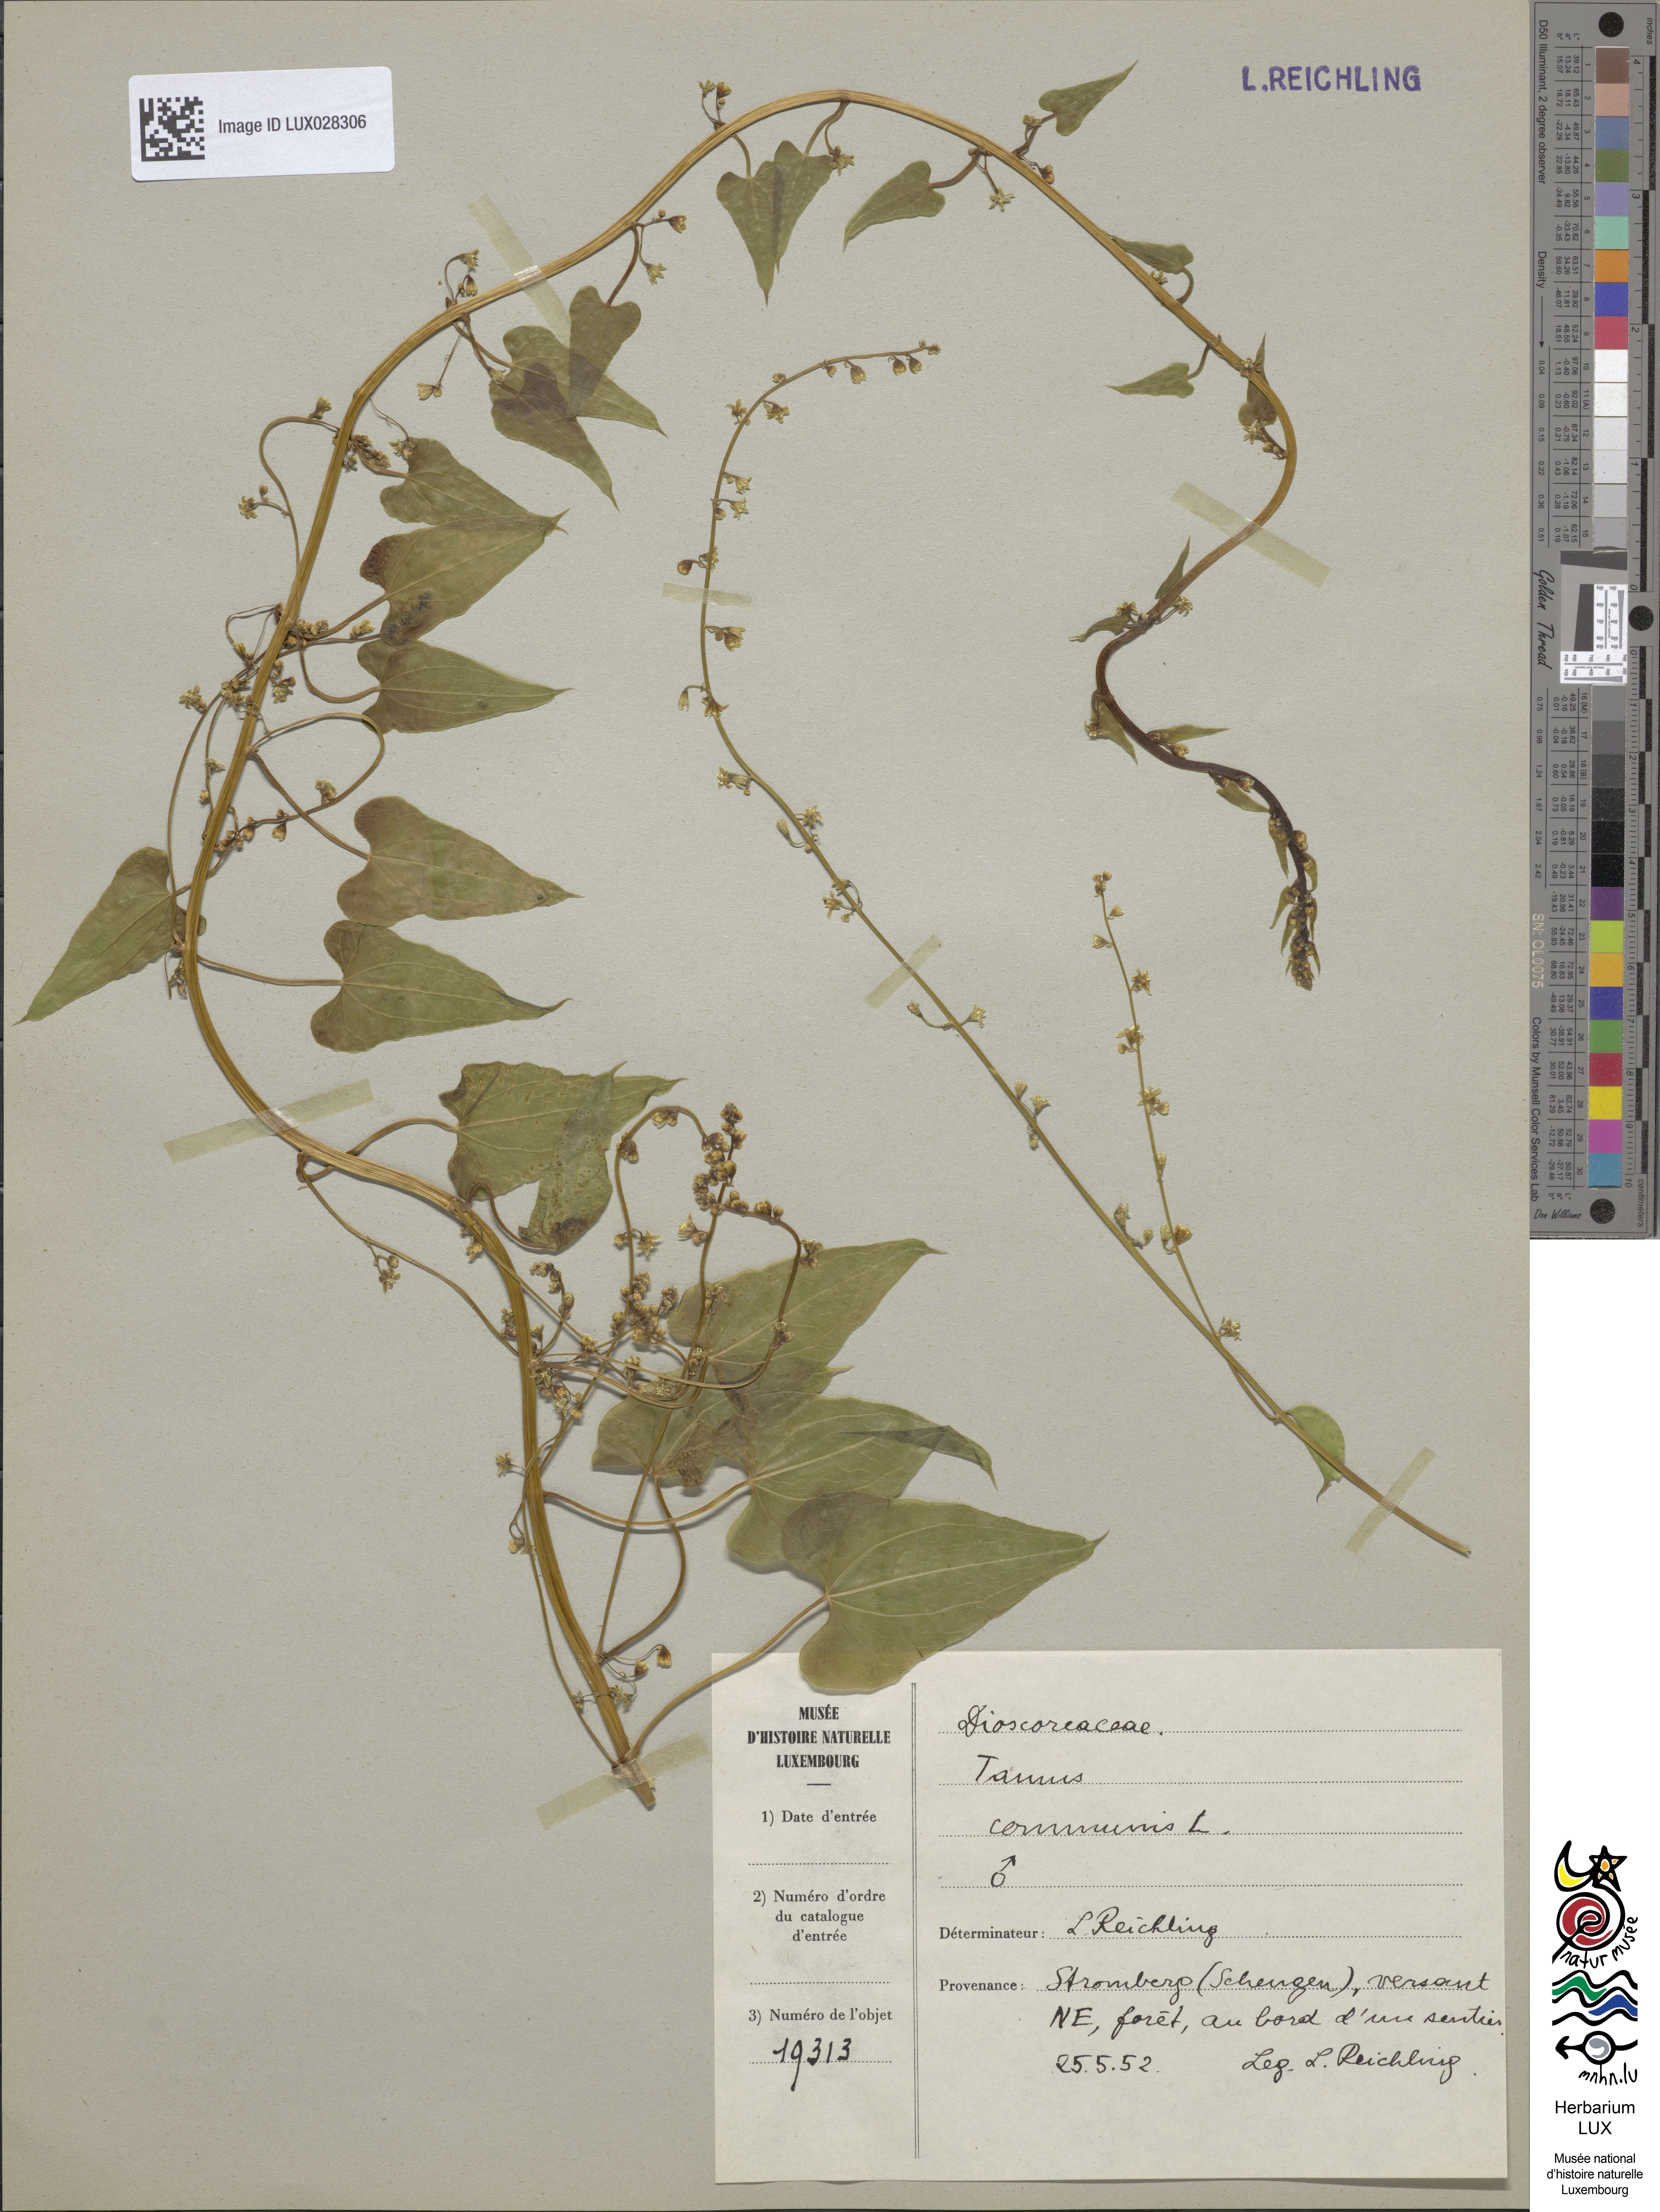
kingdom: Plantae
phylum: Tracheophyta
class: Liliopsida
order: Dioscoreales
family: Dioscoreaceae
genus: Dioscorea
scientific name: Dioscorea communis
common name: Black-bindweed
